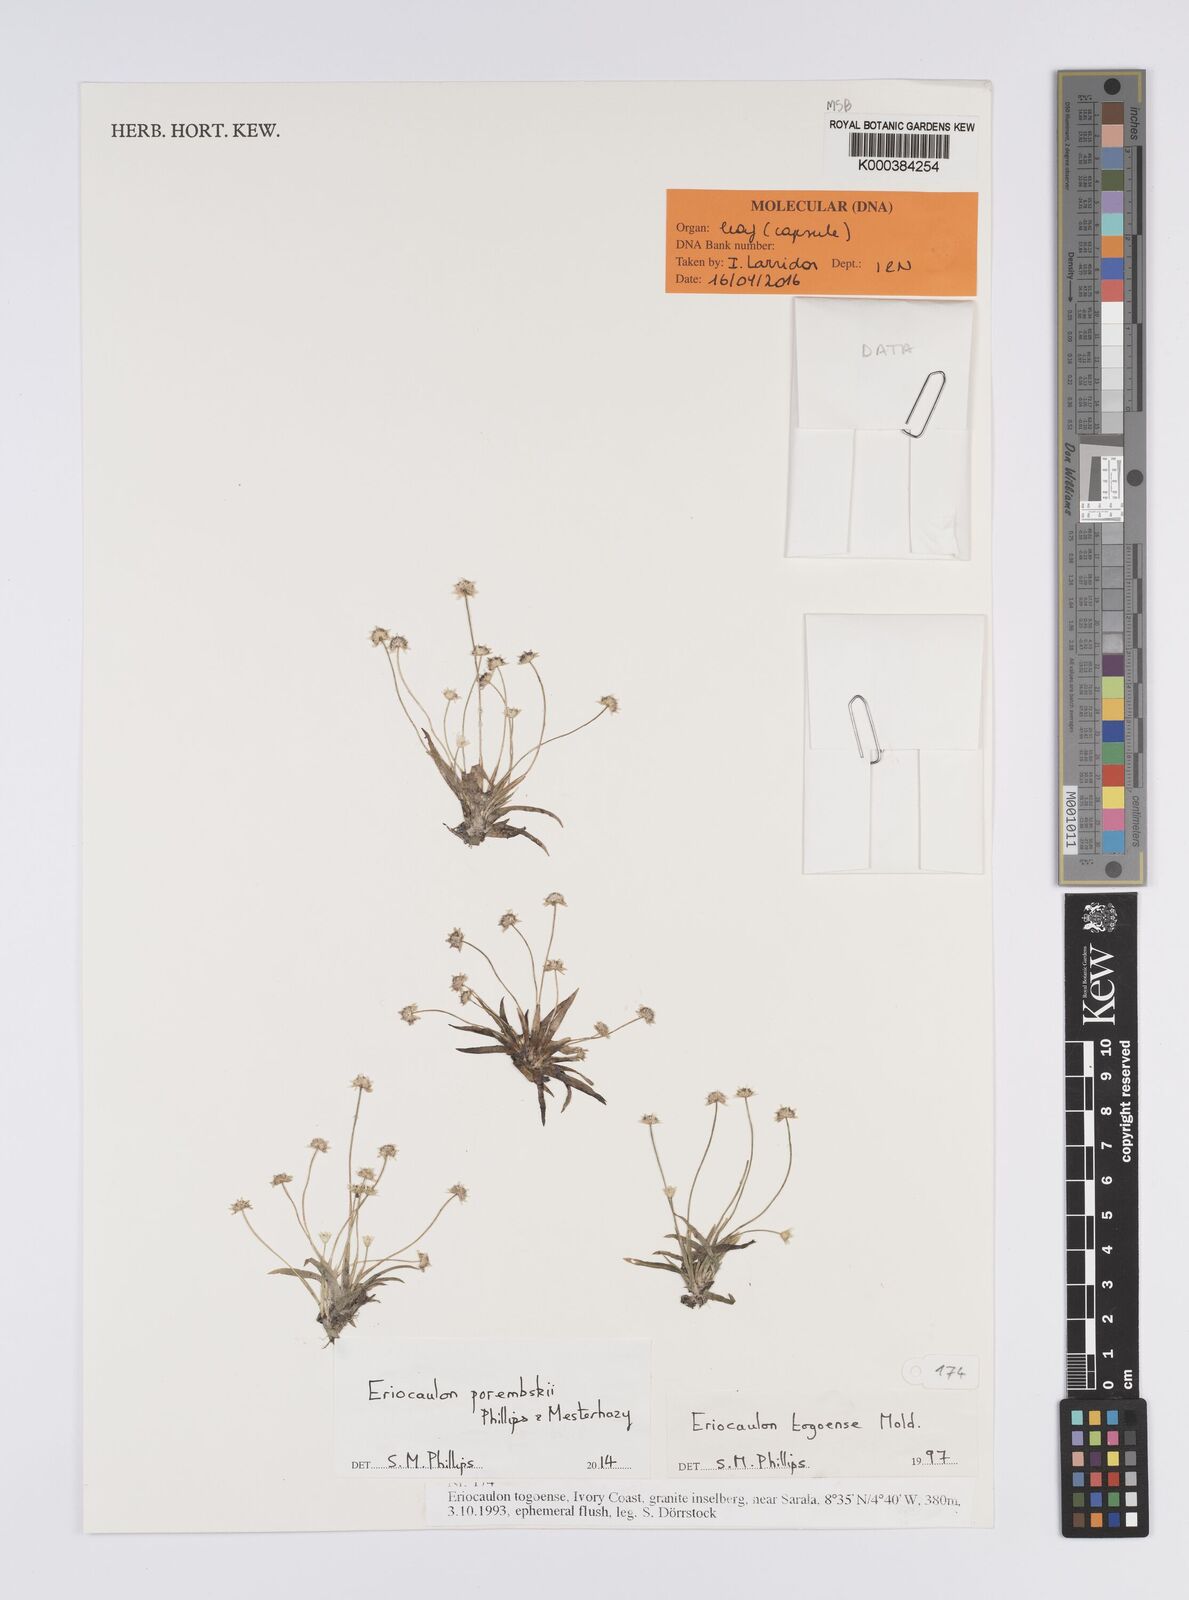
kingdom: Plantae
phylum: Tracheophyta
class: Liliopsida
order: Poales
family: Eriocaulaceae
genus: Eriocaulon
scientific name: Eriocaulon togoense
